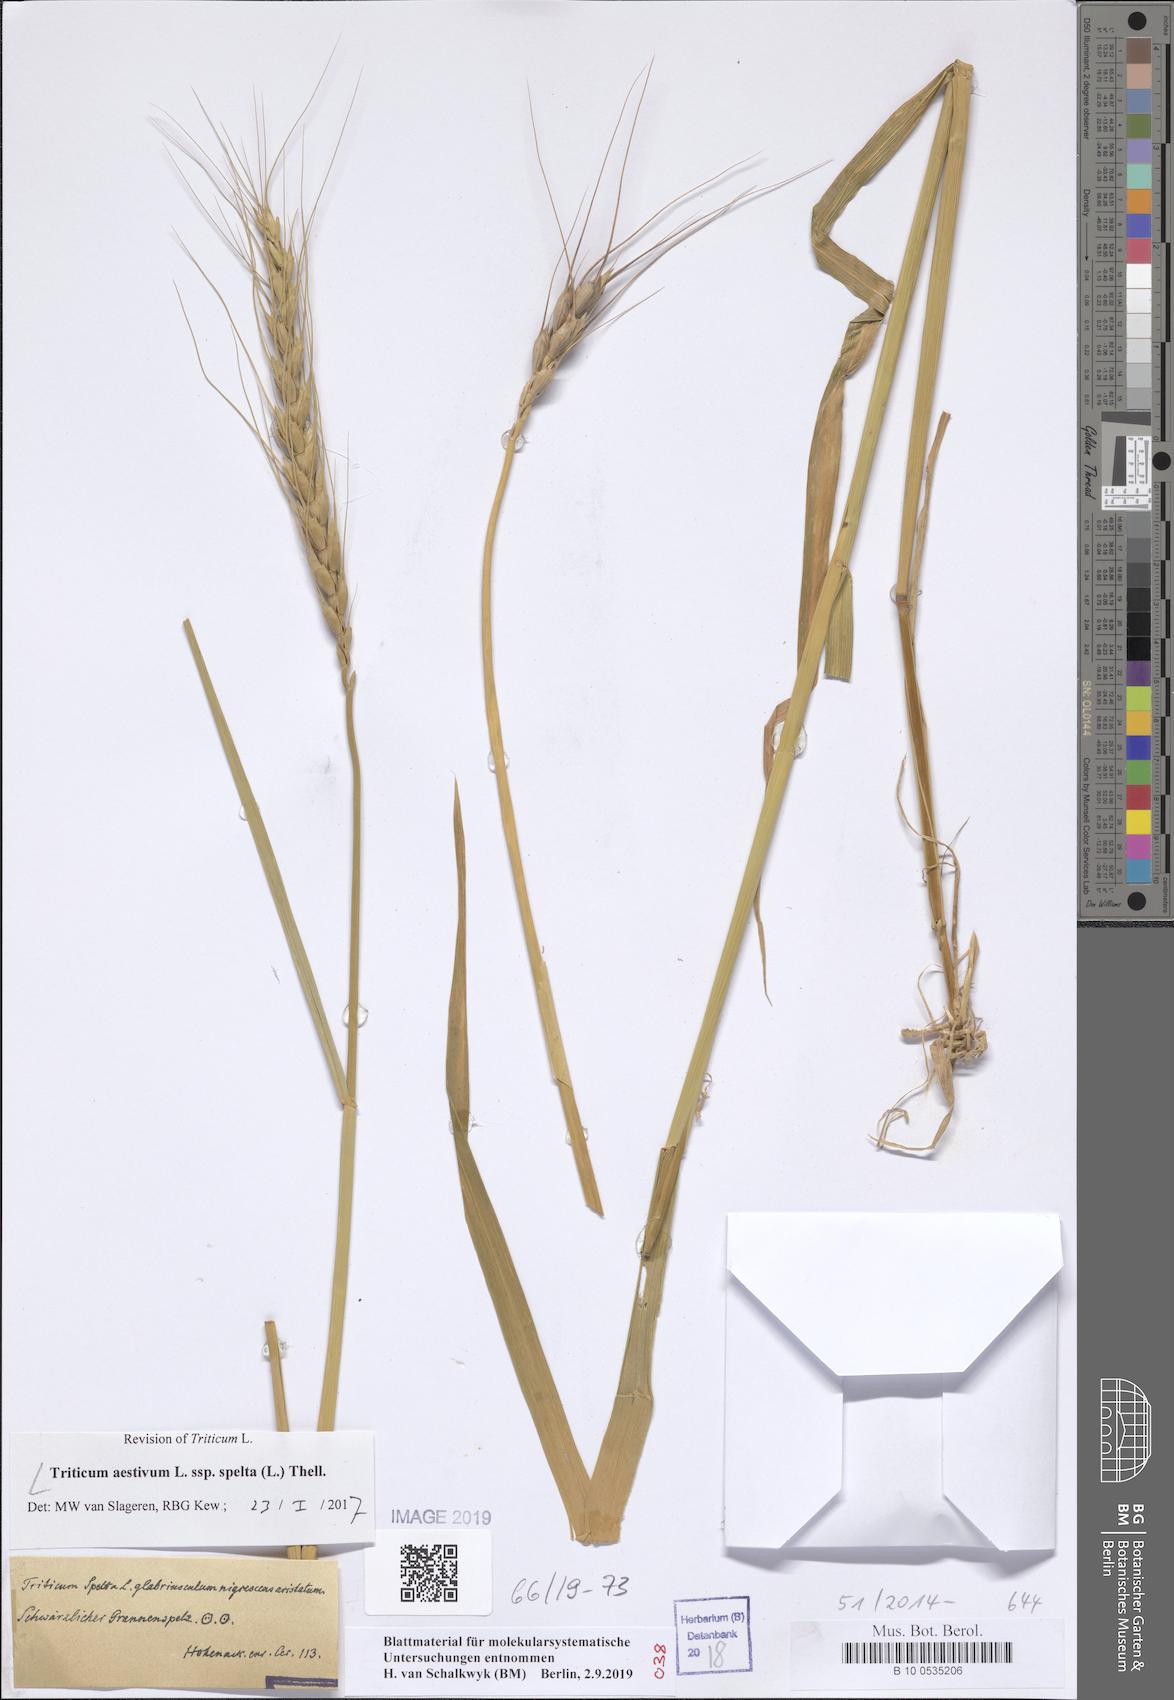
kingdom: Plantae
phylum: Tracheophyta
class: Liliopsida
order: Poales
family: Poaceae
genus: Triticum
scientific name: Triticum aestivum
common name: Common wheat
